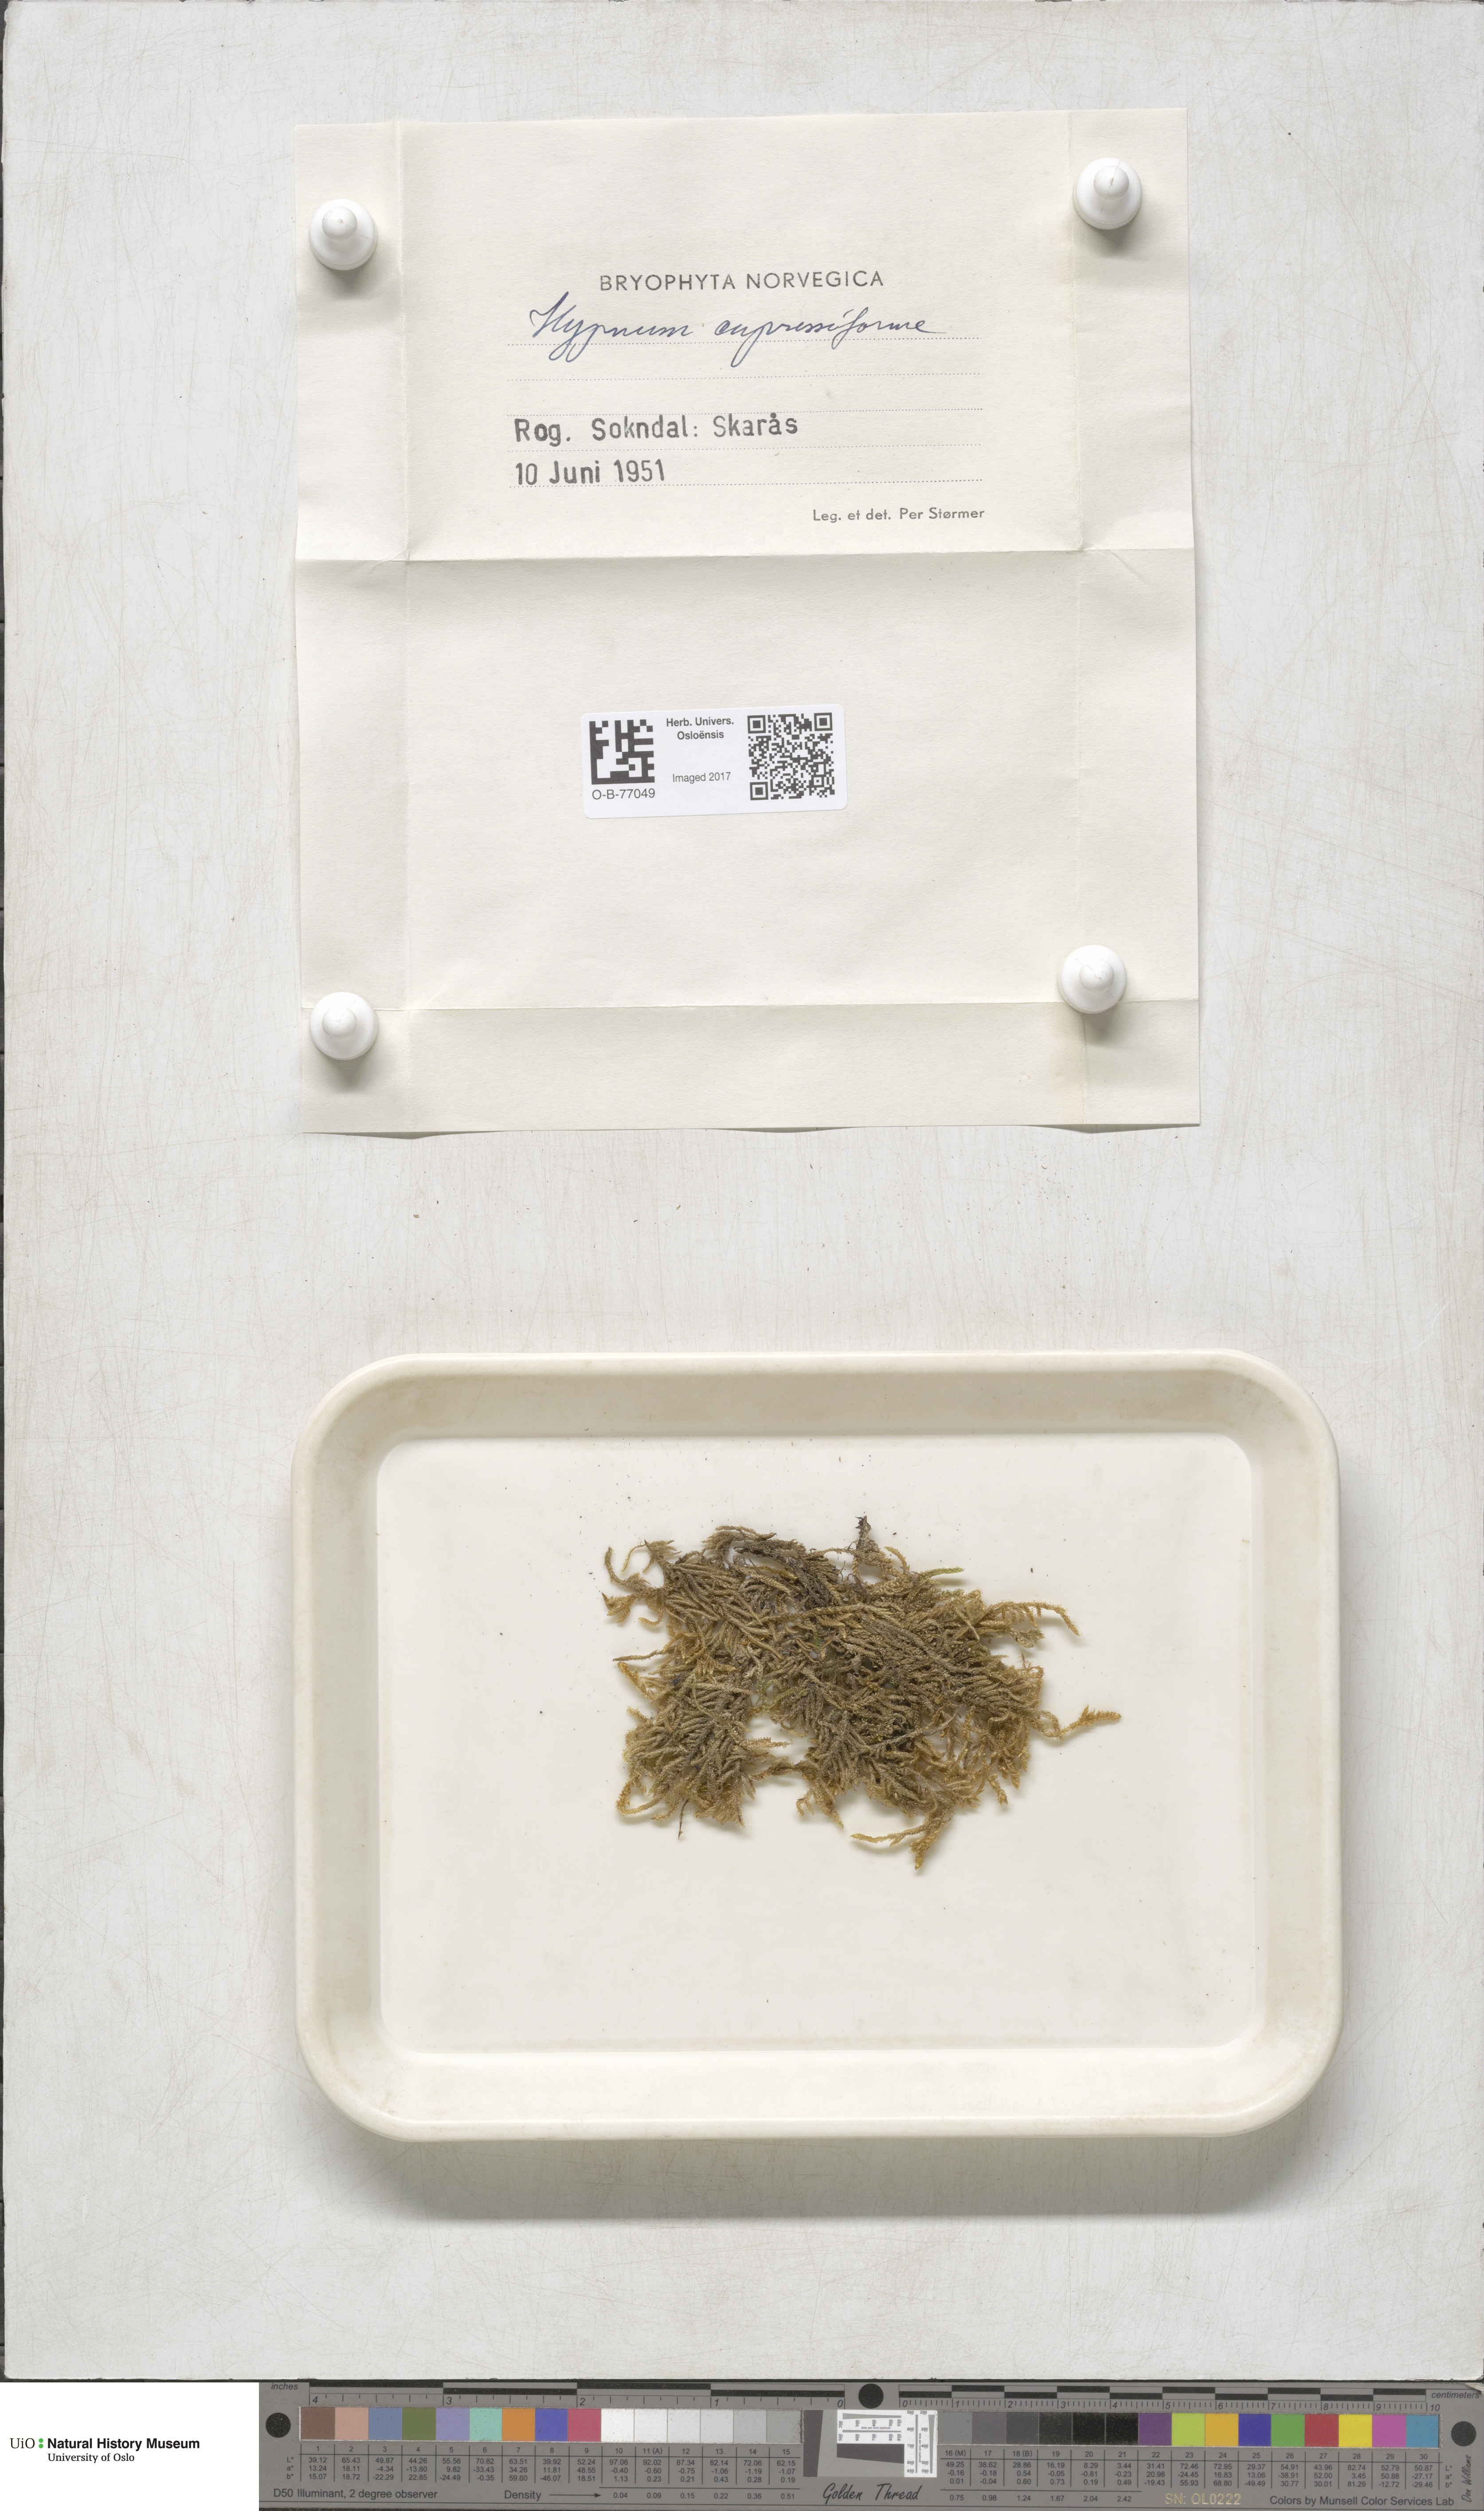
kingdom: Plantae
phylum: Bryophyta
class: Bryopsida
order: Hypnales
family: Hypnaceae
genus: Hypnum
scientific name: Hypnum cupressiforme
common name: Cypress-leaved plait-moss
